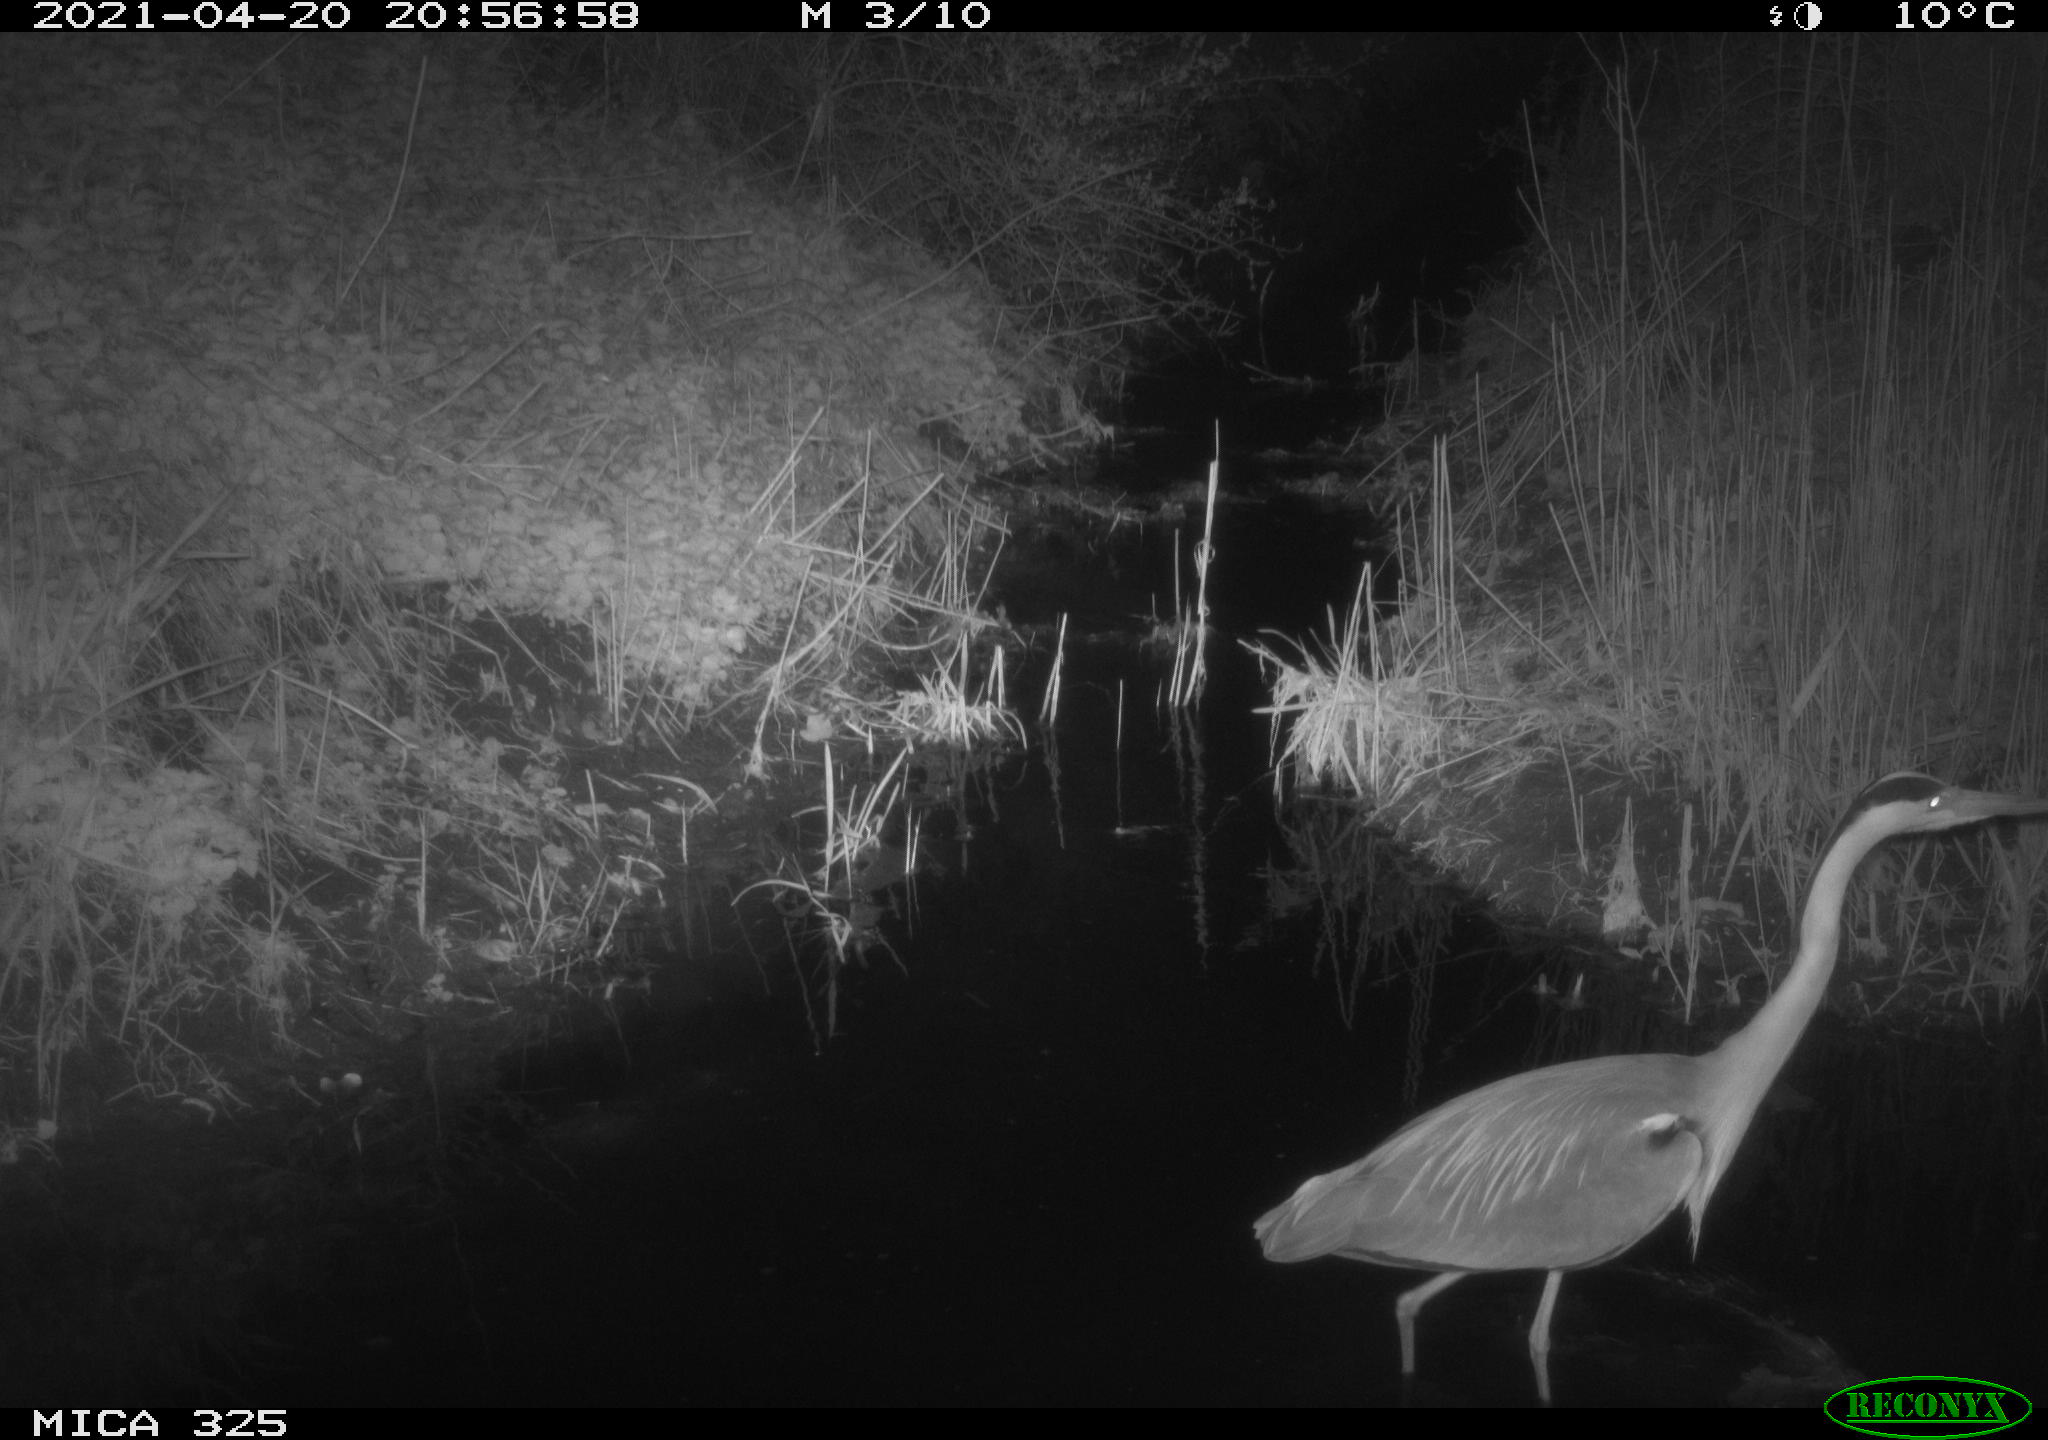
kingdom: Animalia
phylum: Chordata
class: Aves
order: Pelecaniformes
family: Ardeidae
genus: Ardea
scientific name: Ardea cinerea
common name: Grey heron
